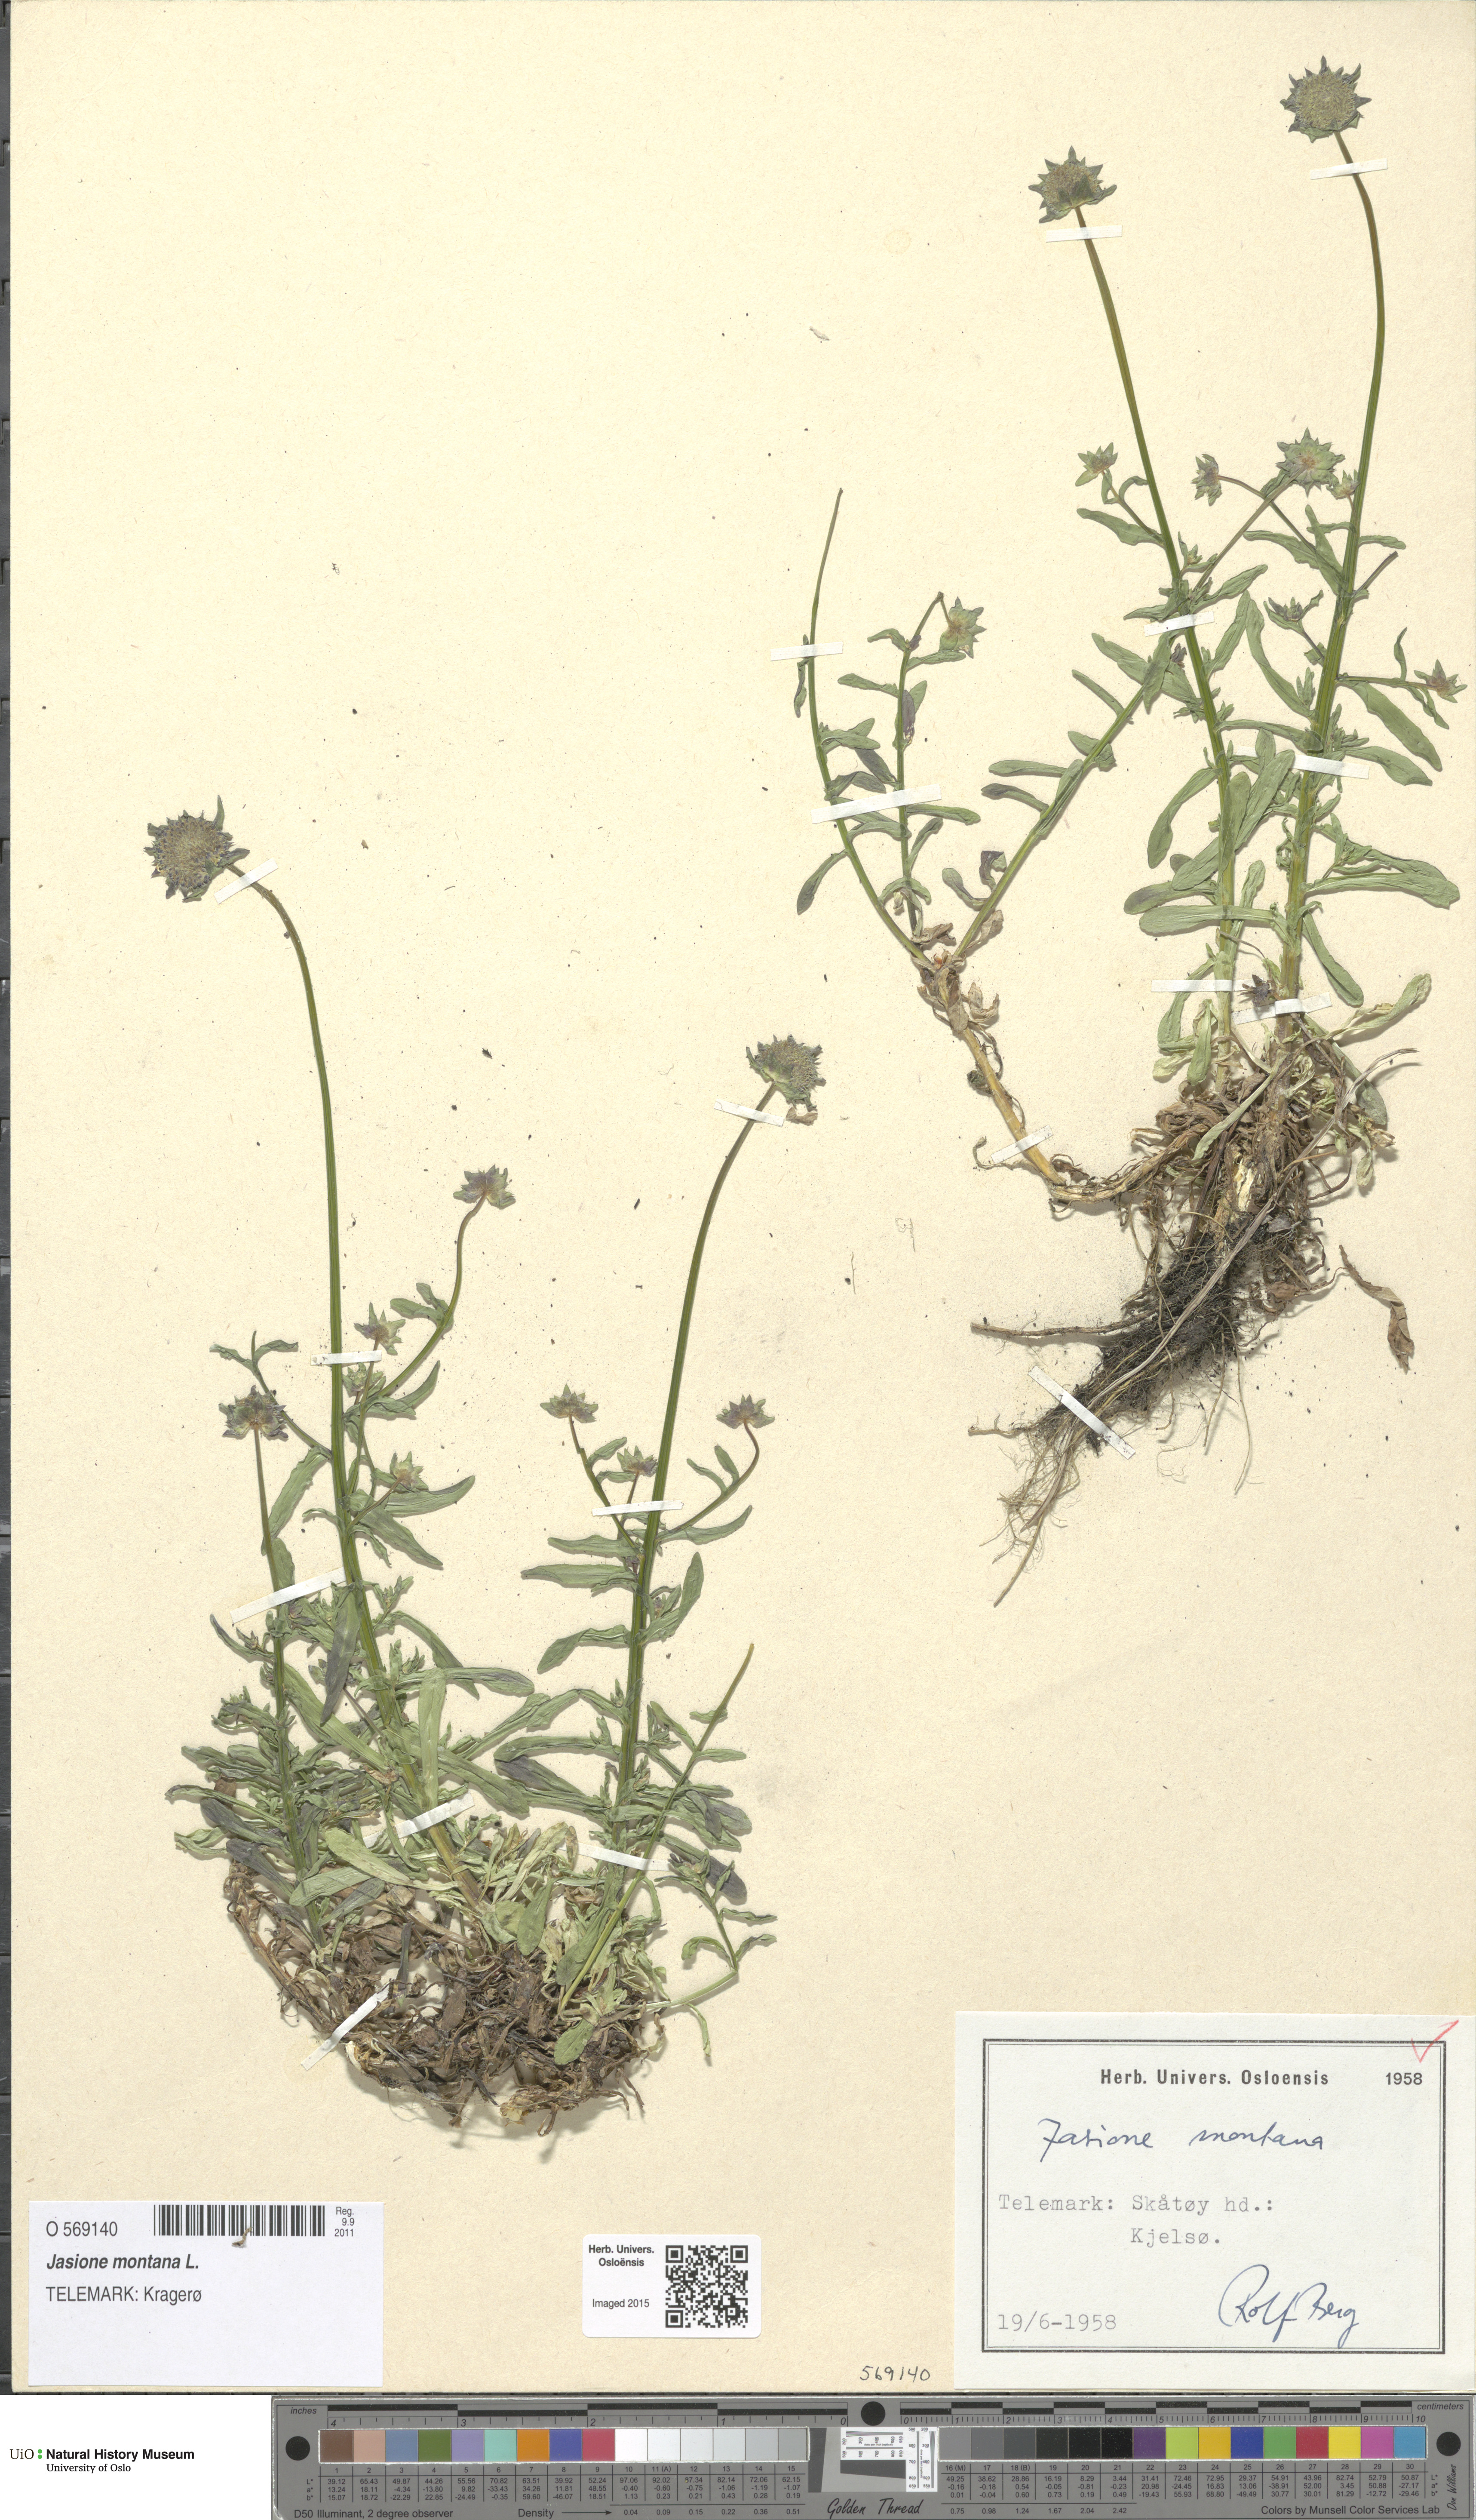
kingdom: Plantae
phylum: Tracheophyta
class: Magnoliopsida
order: Asterales
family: Campanulaceae
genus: Jasione
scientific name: Jasione montana
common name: Sheep's-bit
